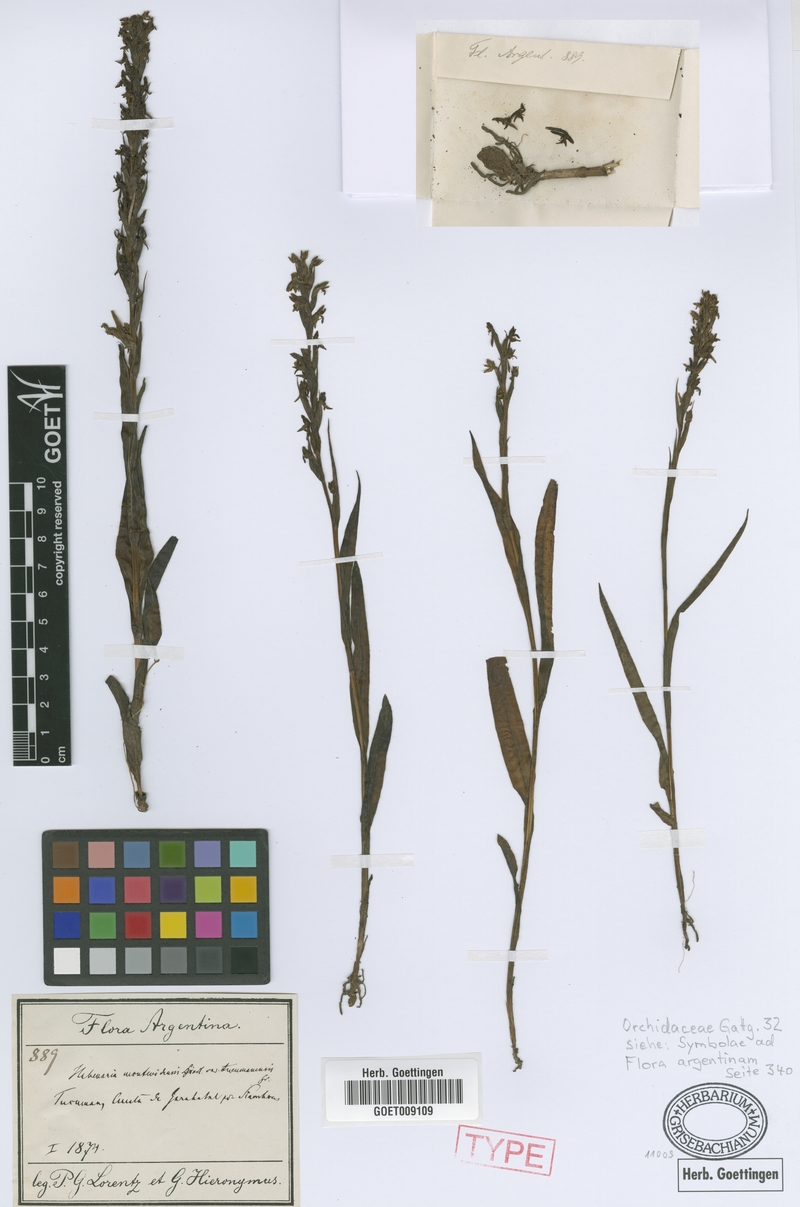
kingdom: Plantae
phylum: Tracheophyta
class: Liliopsida
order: Asparagales
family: Orchidaceae
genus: Habenaria
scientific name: Habenaria parviflora
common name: Small flowered habenaria
